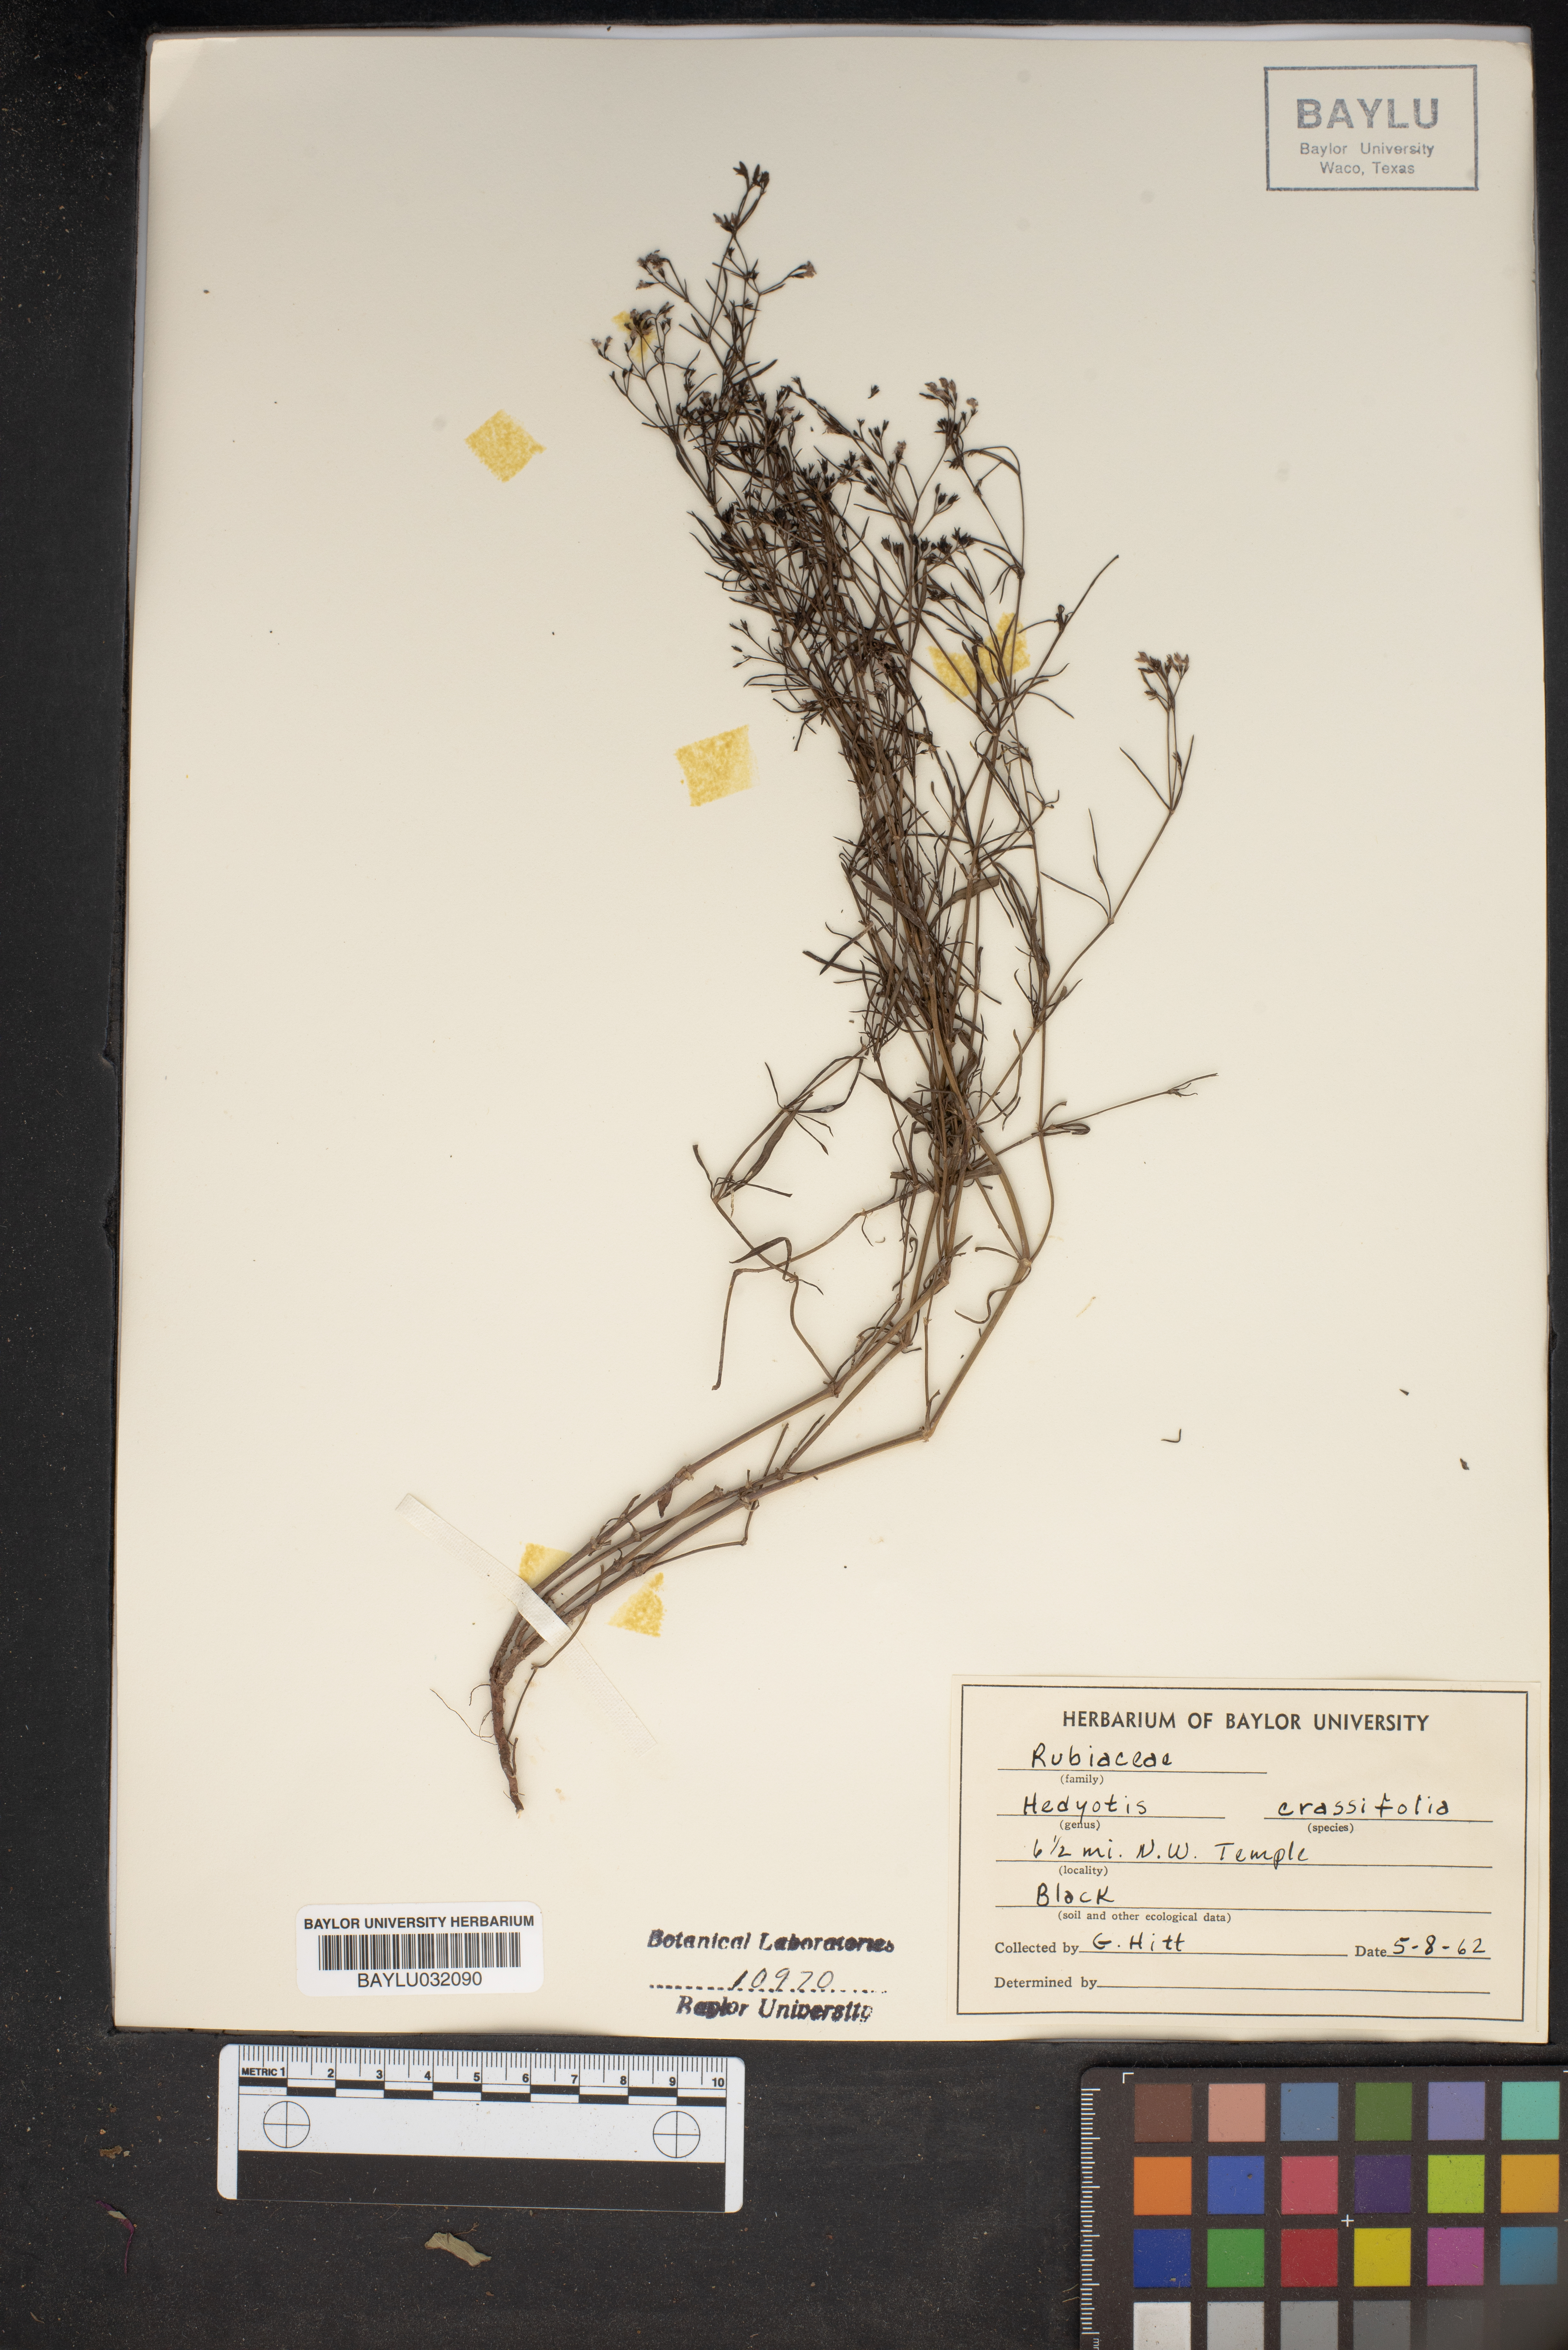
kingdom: Plantae
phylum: Tracheophyta
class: Magnoliopsida
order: Gentianales
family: Rubiaceae
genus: Houstonia
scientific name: Houstonia pusilla
